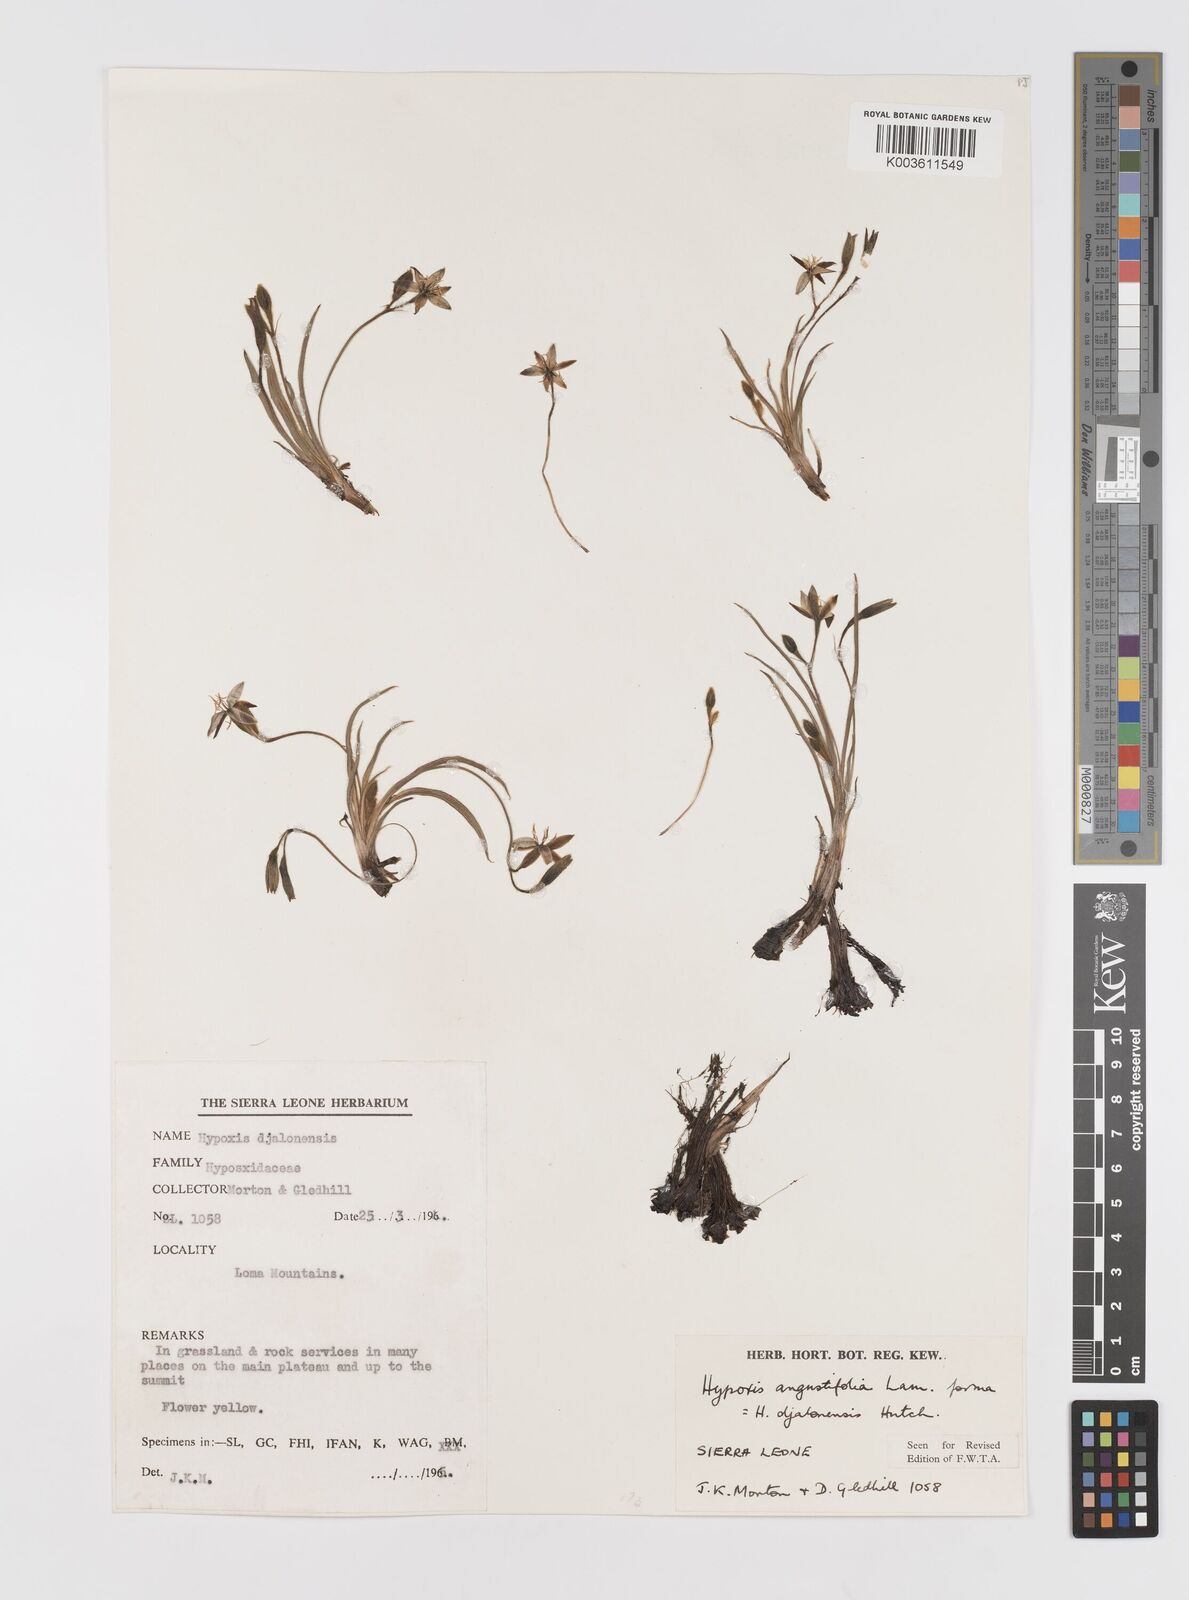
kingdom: Plantae
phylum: Tracheophyta
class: Liliopsida
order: Asparagales
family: Hypoxidaceae
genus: Hypoxis
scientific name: Hypoxis angustifolia
